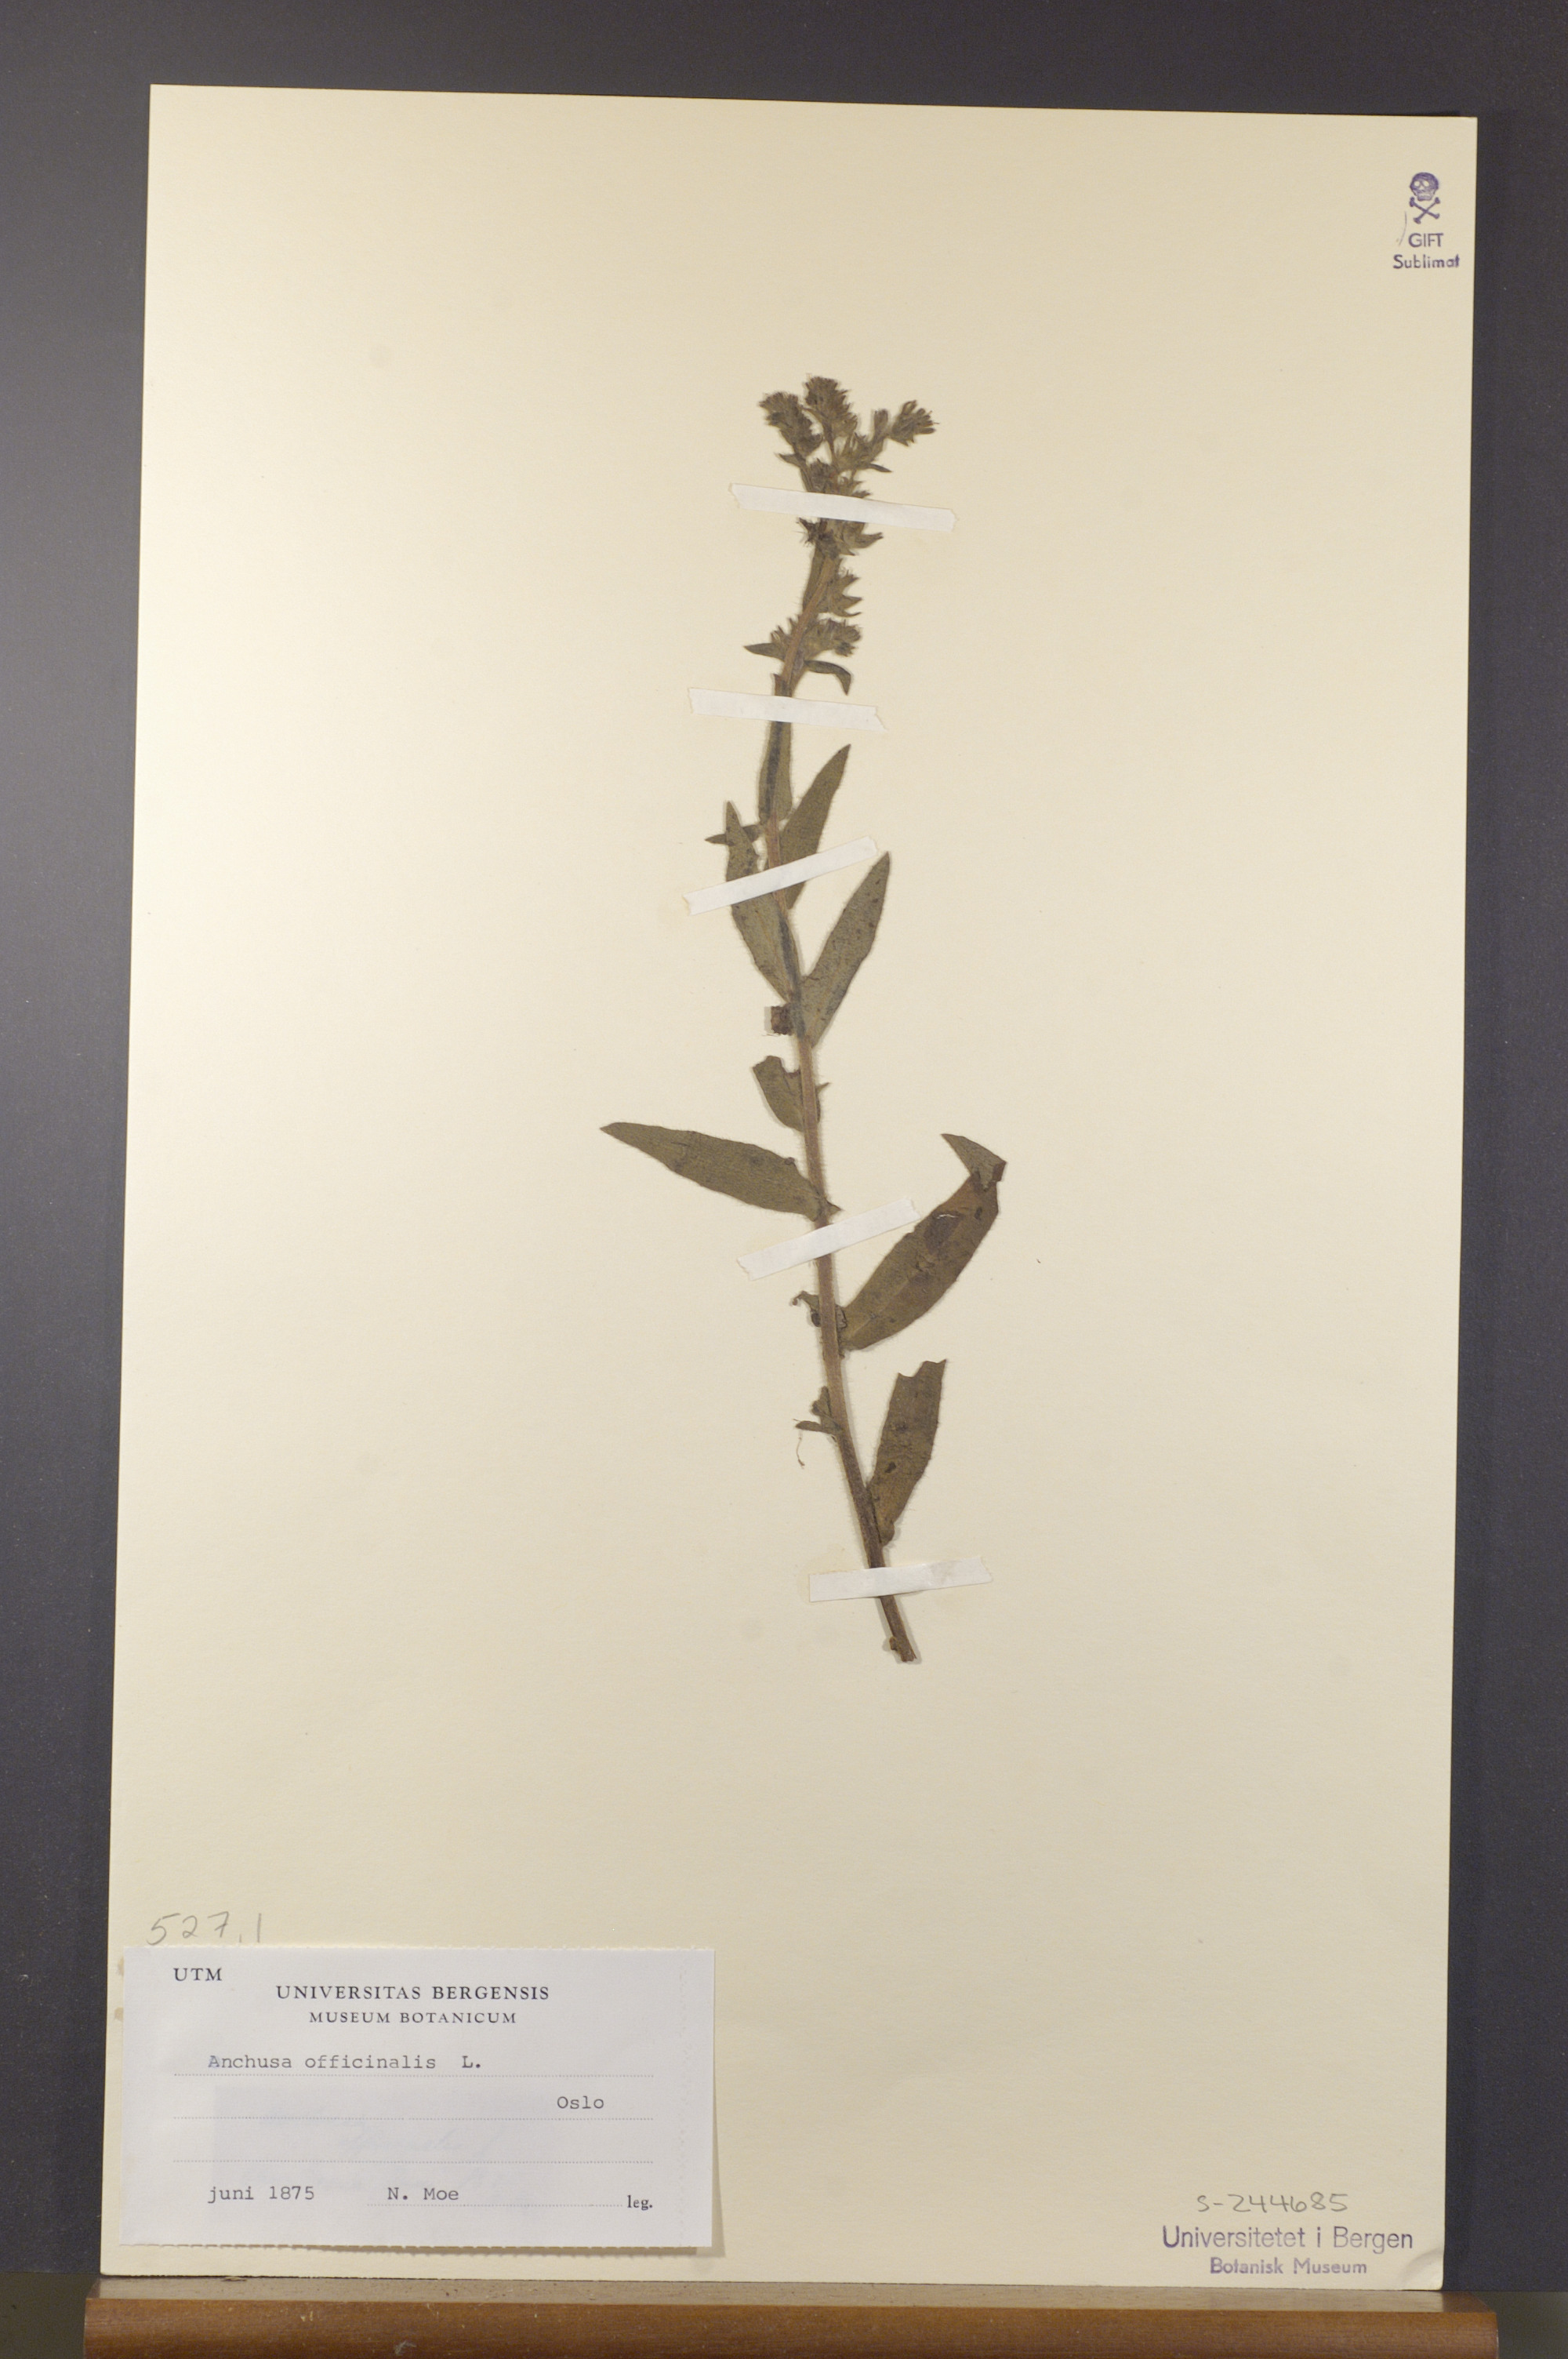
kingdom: Plantae
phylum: Tracheophyta
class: Magnoliopsida
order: Boraginales
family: Boraginaceae
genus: Anchusa
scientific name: Anchusa officinalis
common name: Alkanet
